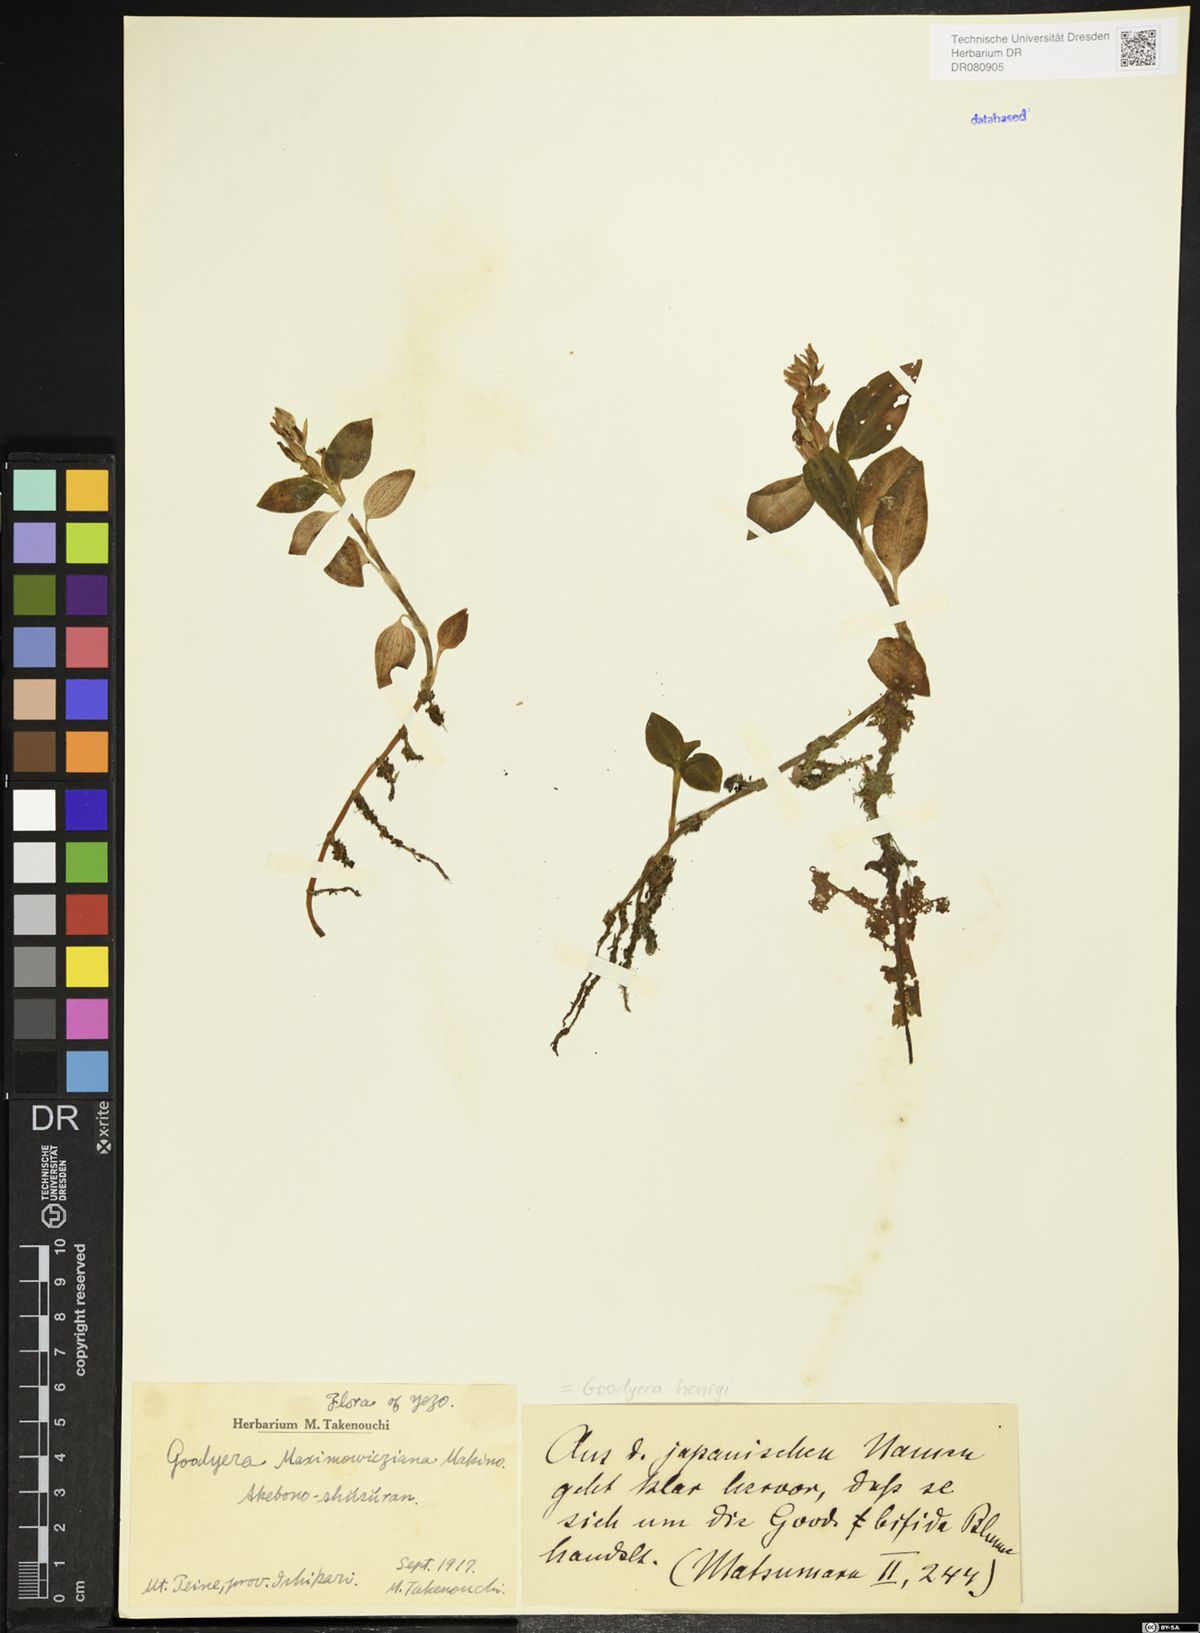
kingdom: Plantae
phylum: Tracheophyta
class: Liliopsida
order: Asparagales
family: Orchidaceae
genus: Goodyera
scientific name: Goodyera henryi
